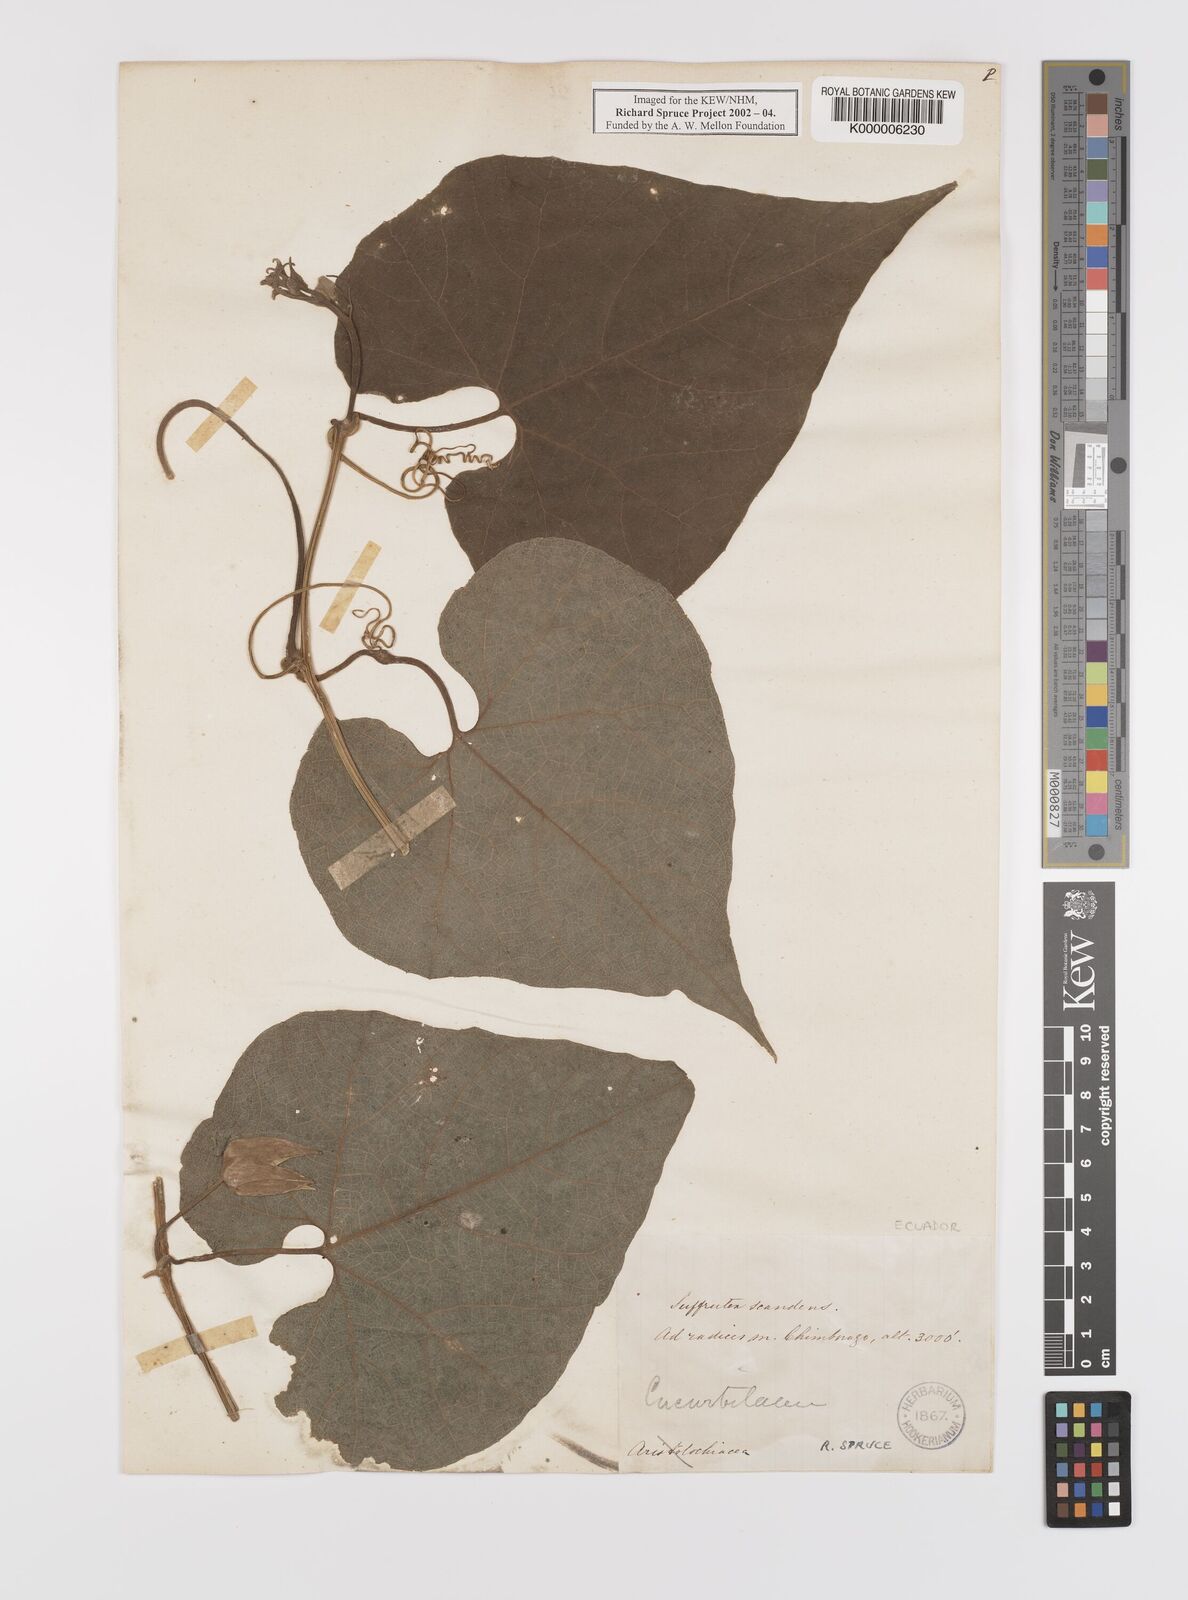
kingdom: Plantae
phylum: Tracheophyta
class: Magnoliopsida
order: Cucurbitales
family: Cucurbitaceae
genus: Calycophysum
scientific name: Calycophysum pedunculatum
